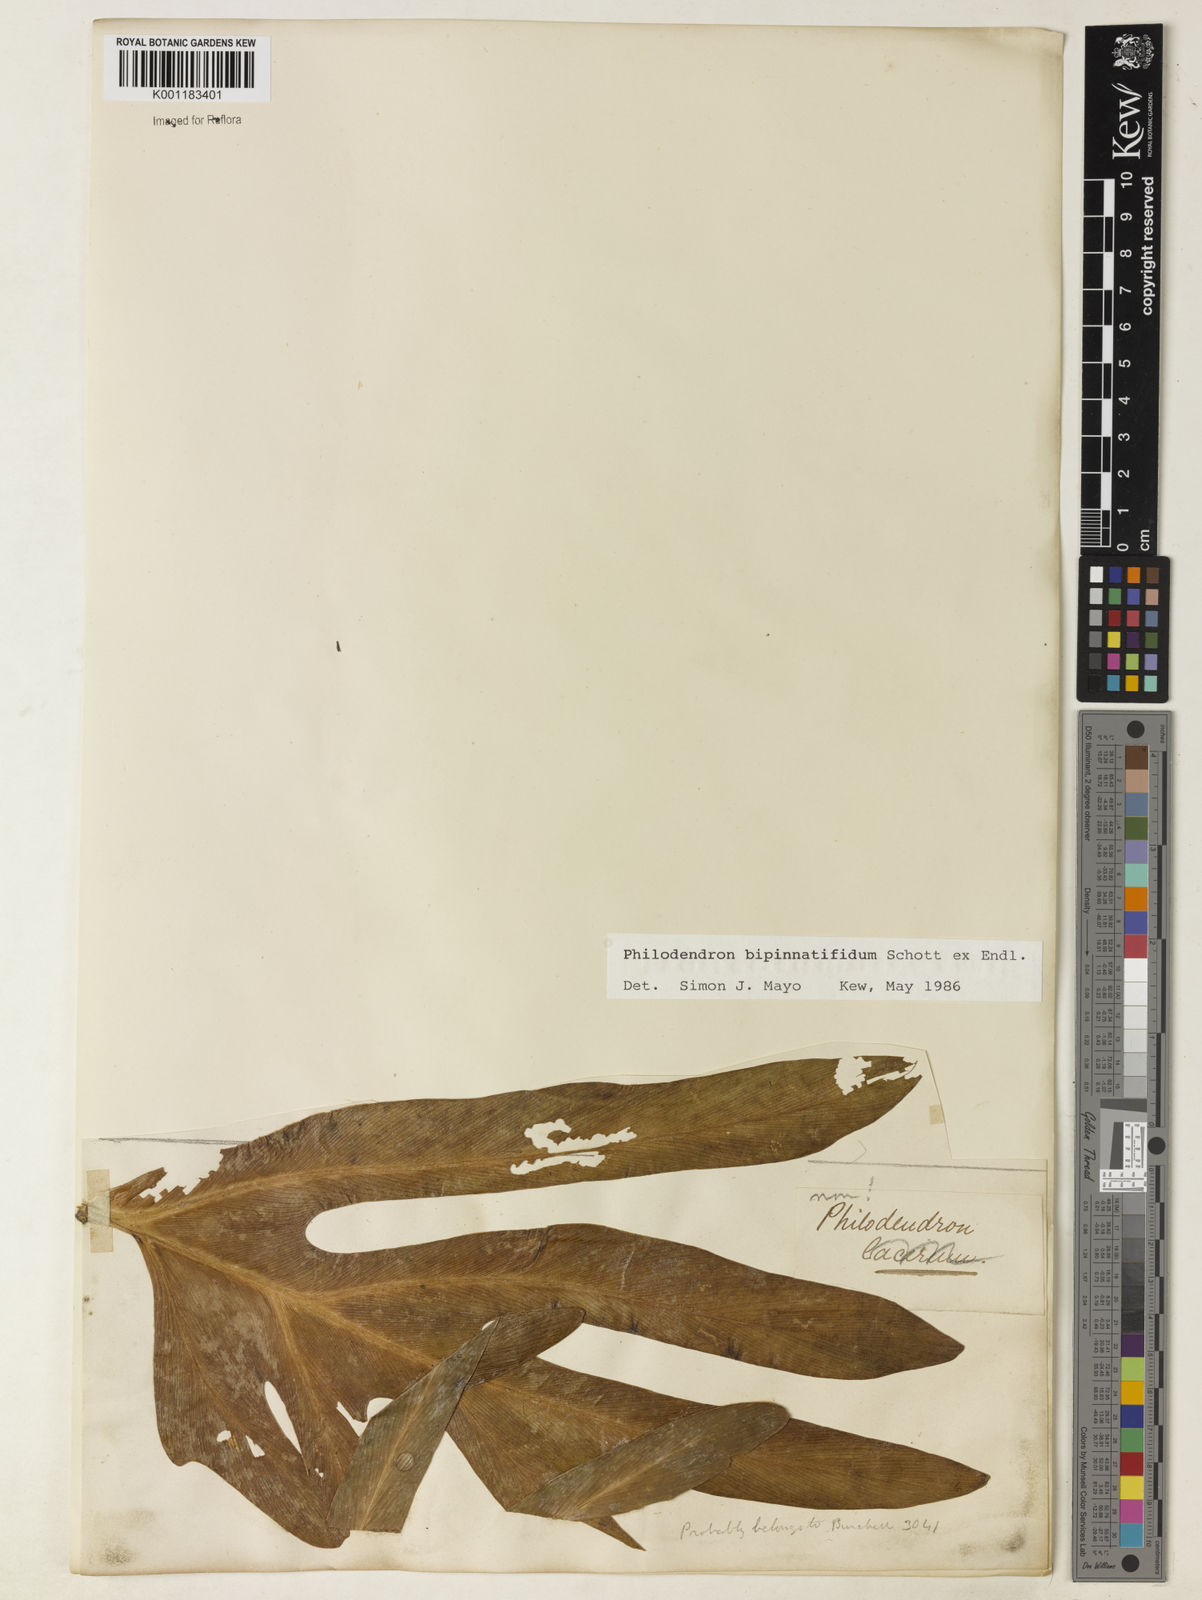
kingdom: Plantae
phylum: Tracheophyta
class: Liliopsida
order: Alismatales
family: Araceae
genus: Philodendron
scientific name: Philodendron
